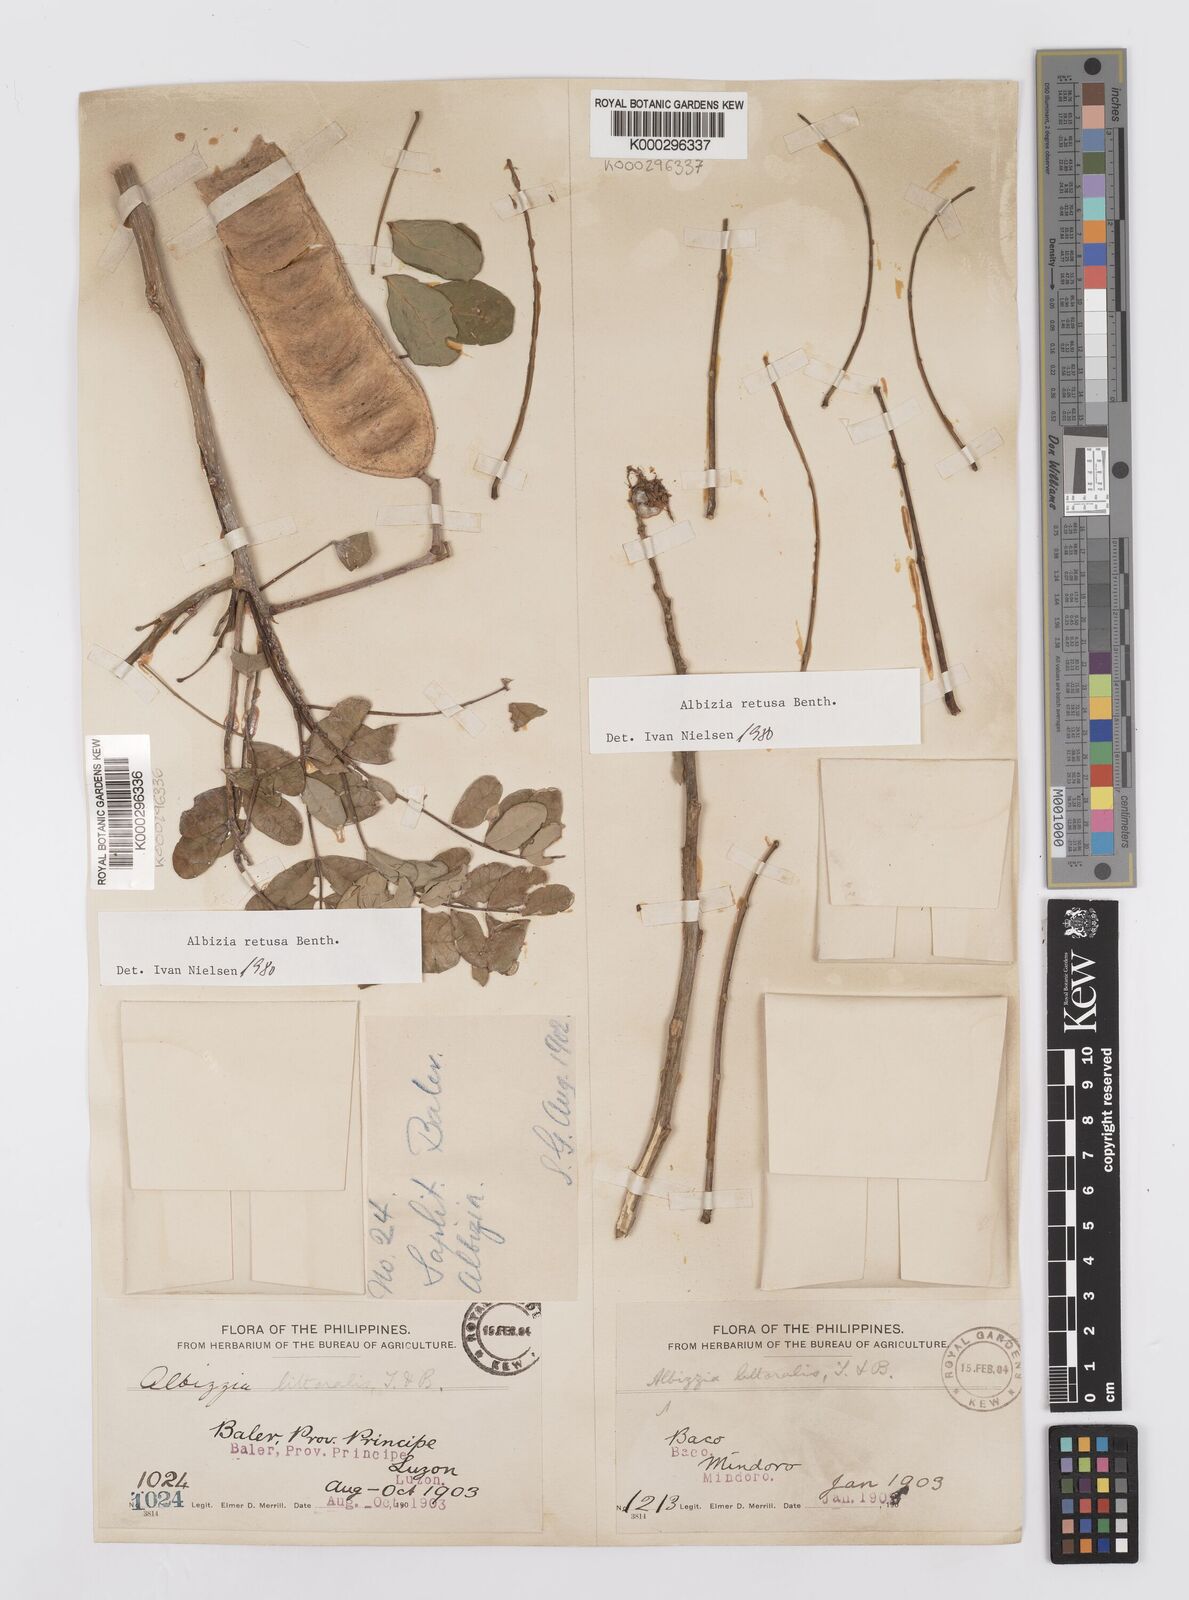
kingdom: Plantae
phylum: Tracheophyta
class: Magnoliopsida
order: Fabales
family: Fabaceae
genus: Albizia
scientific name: Albizia retusa
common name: Sea albizia
